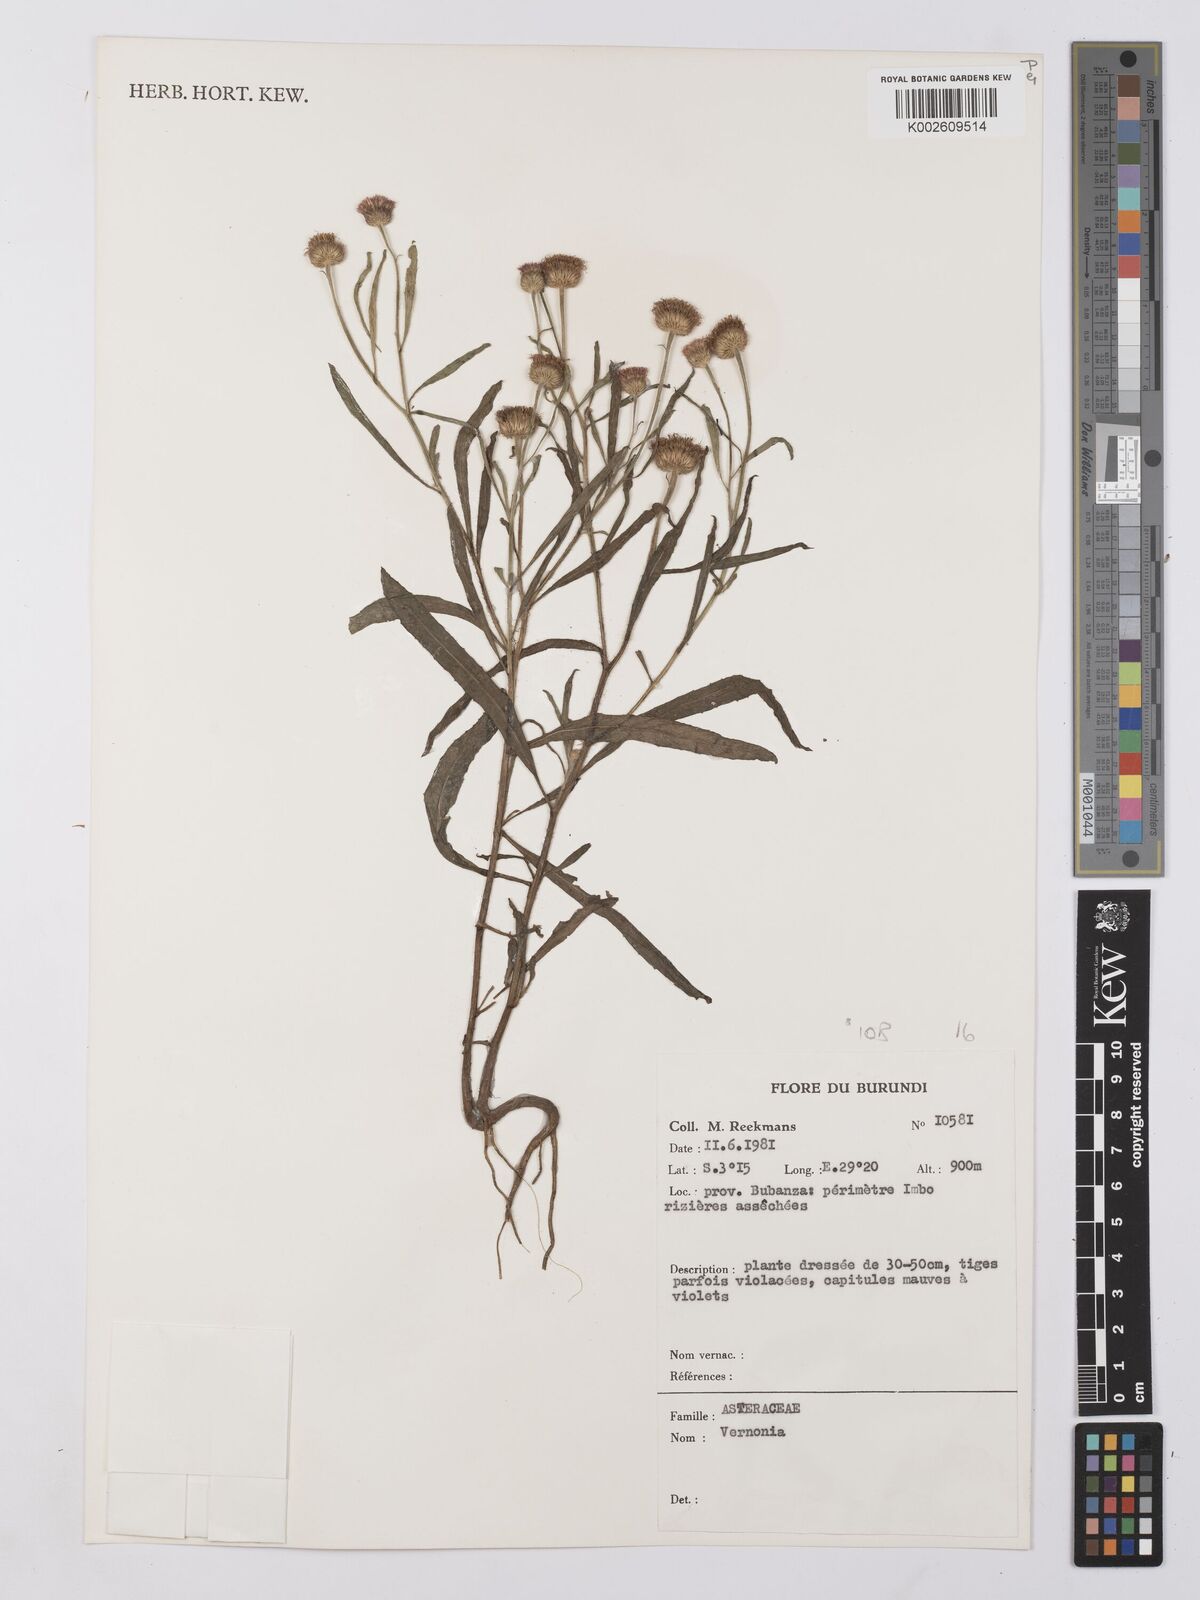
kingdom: Plantae
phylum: Tracheophyta
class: Magnoliopsida
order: Asterales
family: Asteraceae
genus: Vernonia
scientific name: Vernonia
